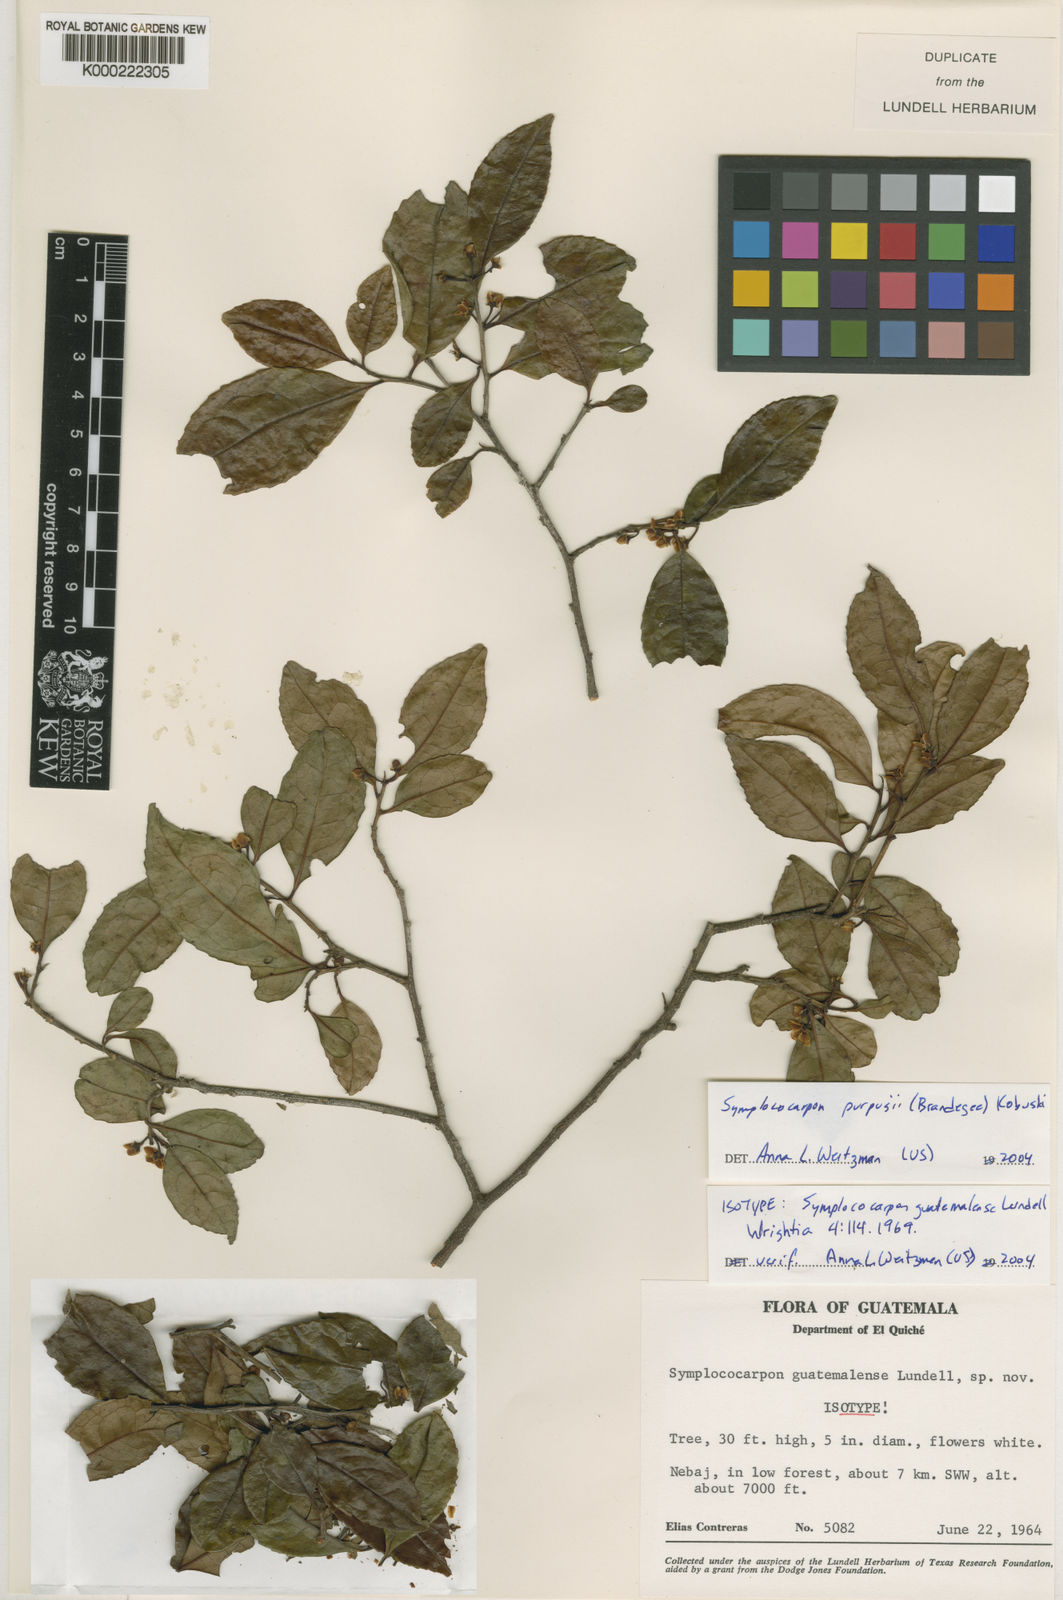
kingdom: Plantae
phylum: Tracheophyta
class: Magnoliopsida
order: Ericales
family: Pentaphylacaceae
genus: Symplococarpon
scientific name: Symplococarpon purpusii
